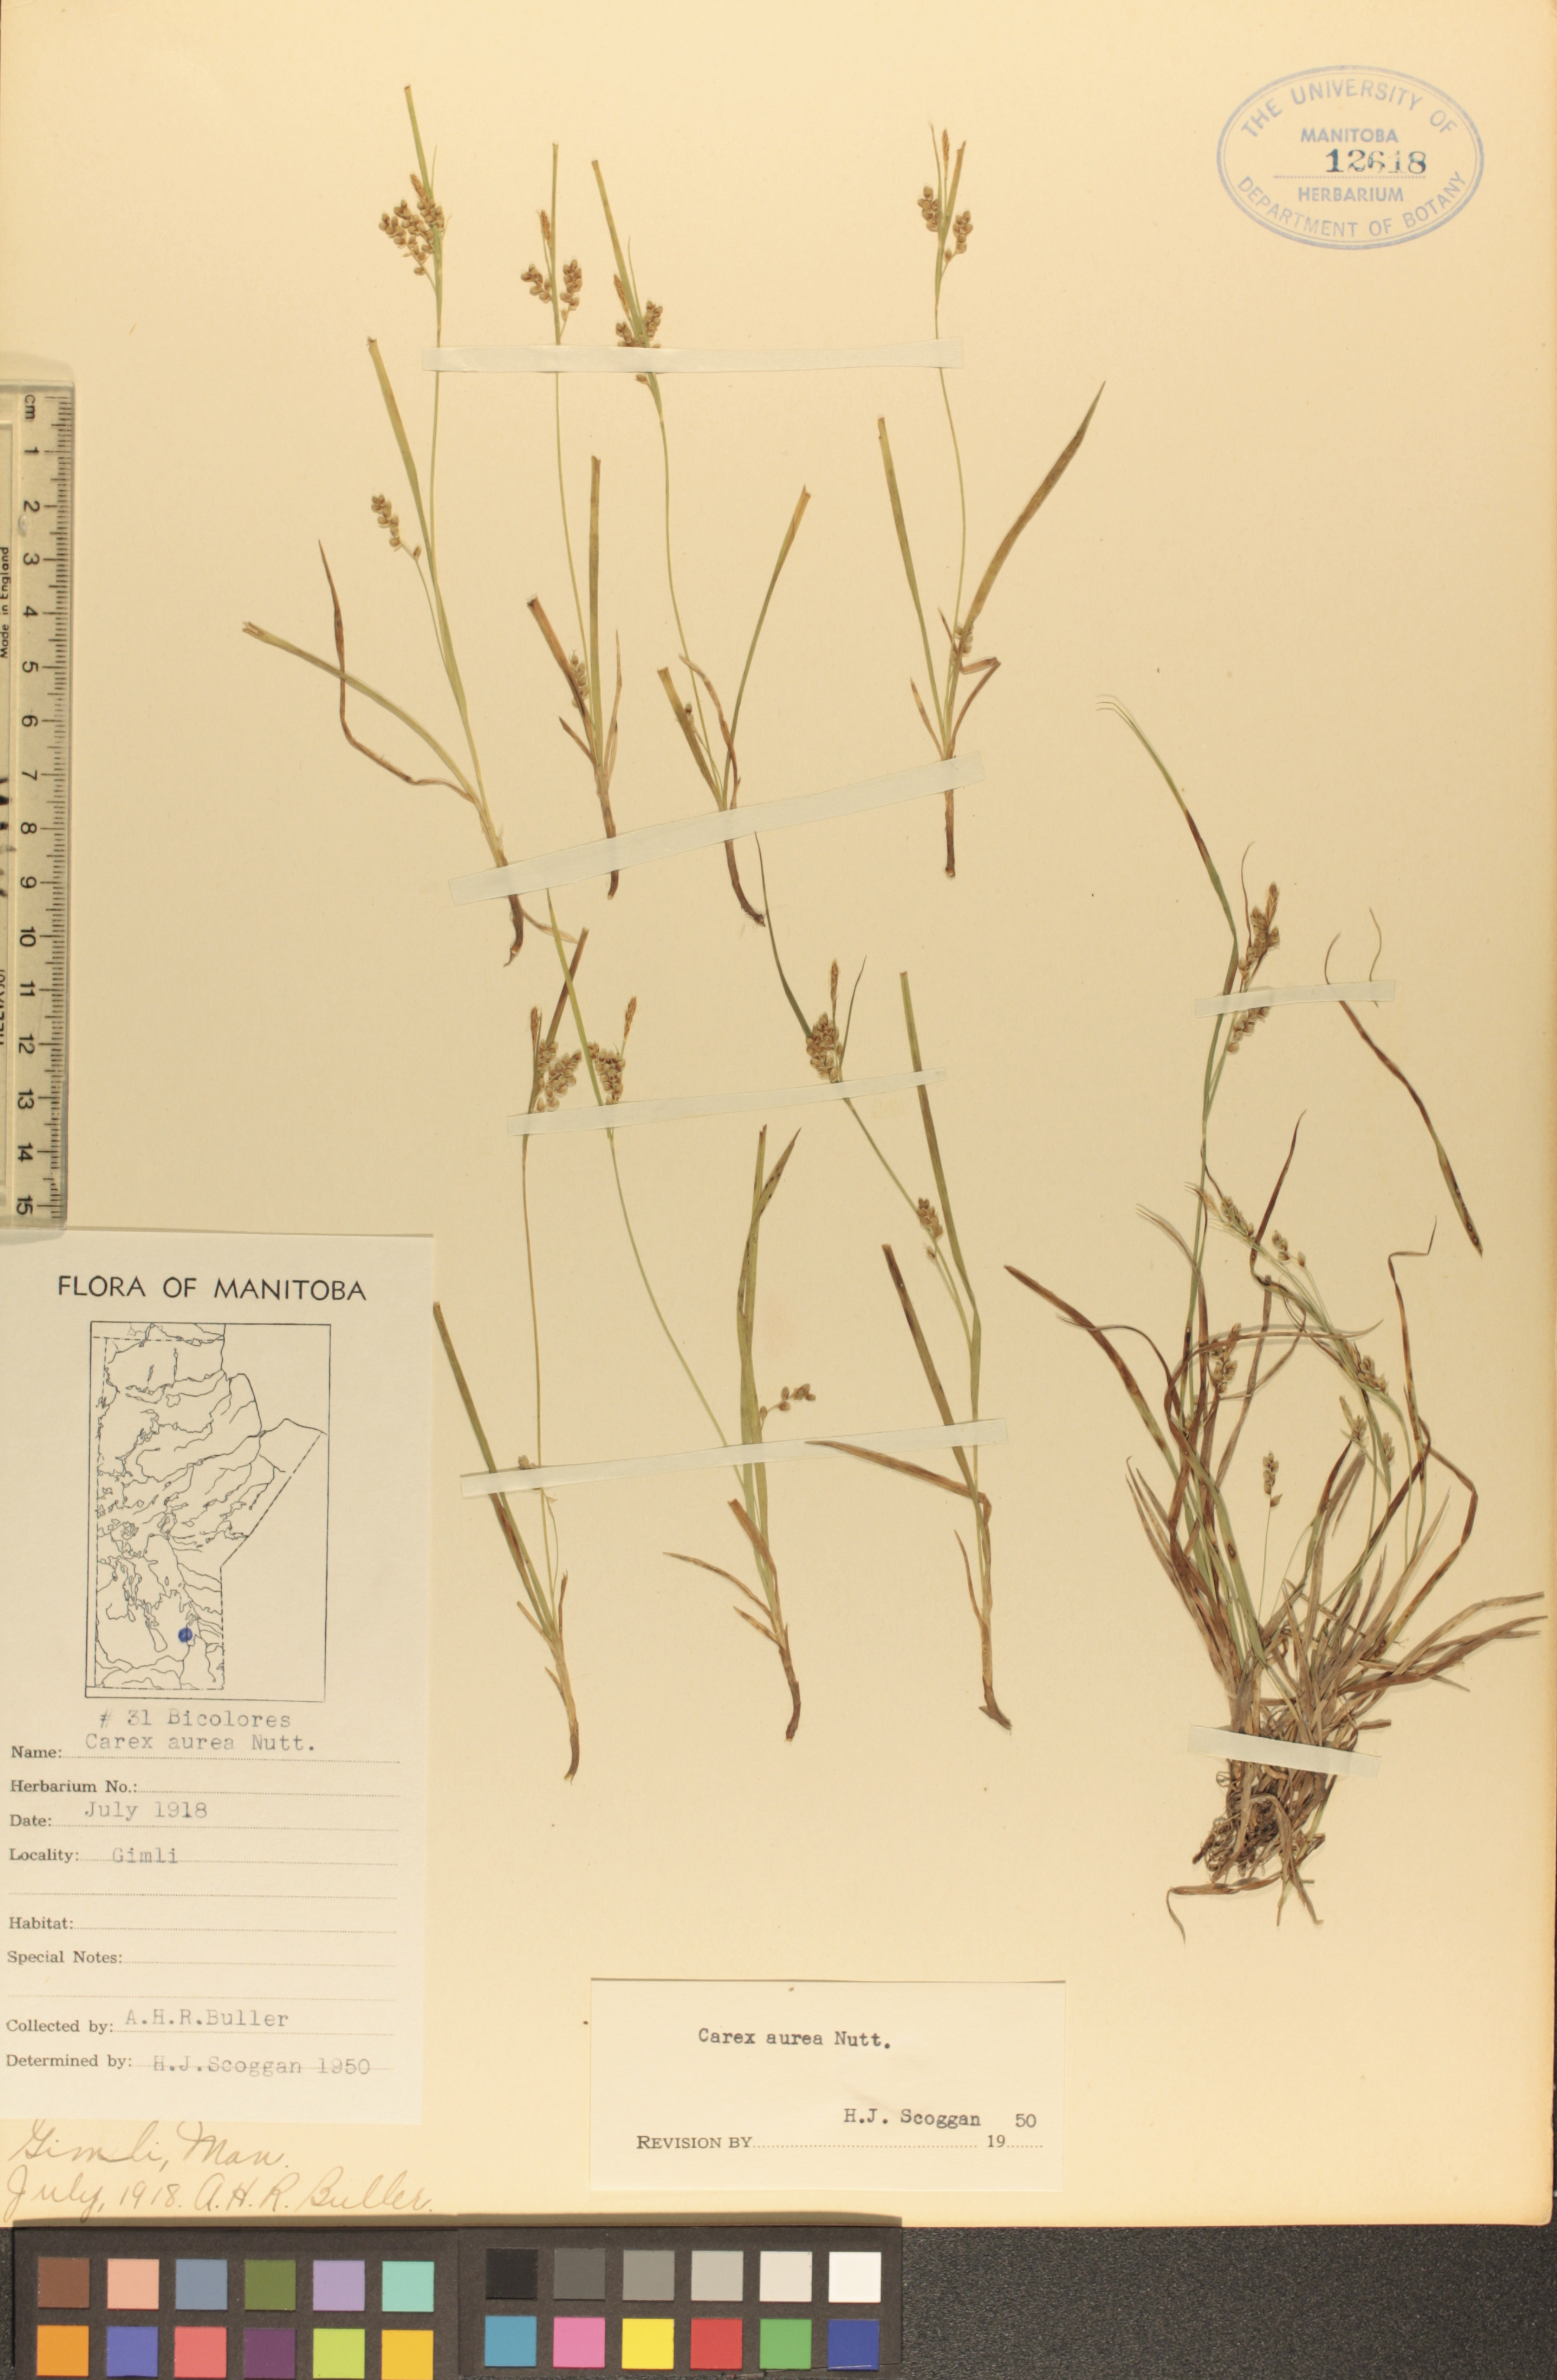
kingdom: Plantae
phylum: Tracheophyta
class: Liliopsida
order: Poales
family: Cyperaceae
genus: Carex
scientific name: Carex aurea
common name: Golden sedge
